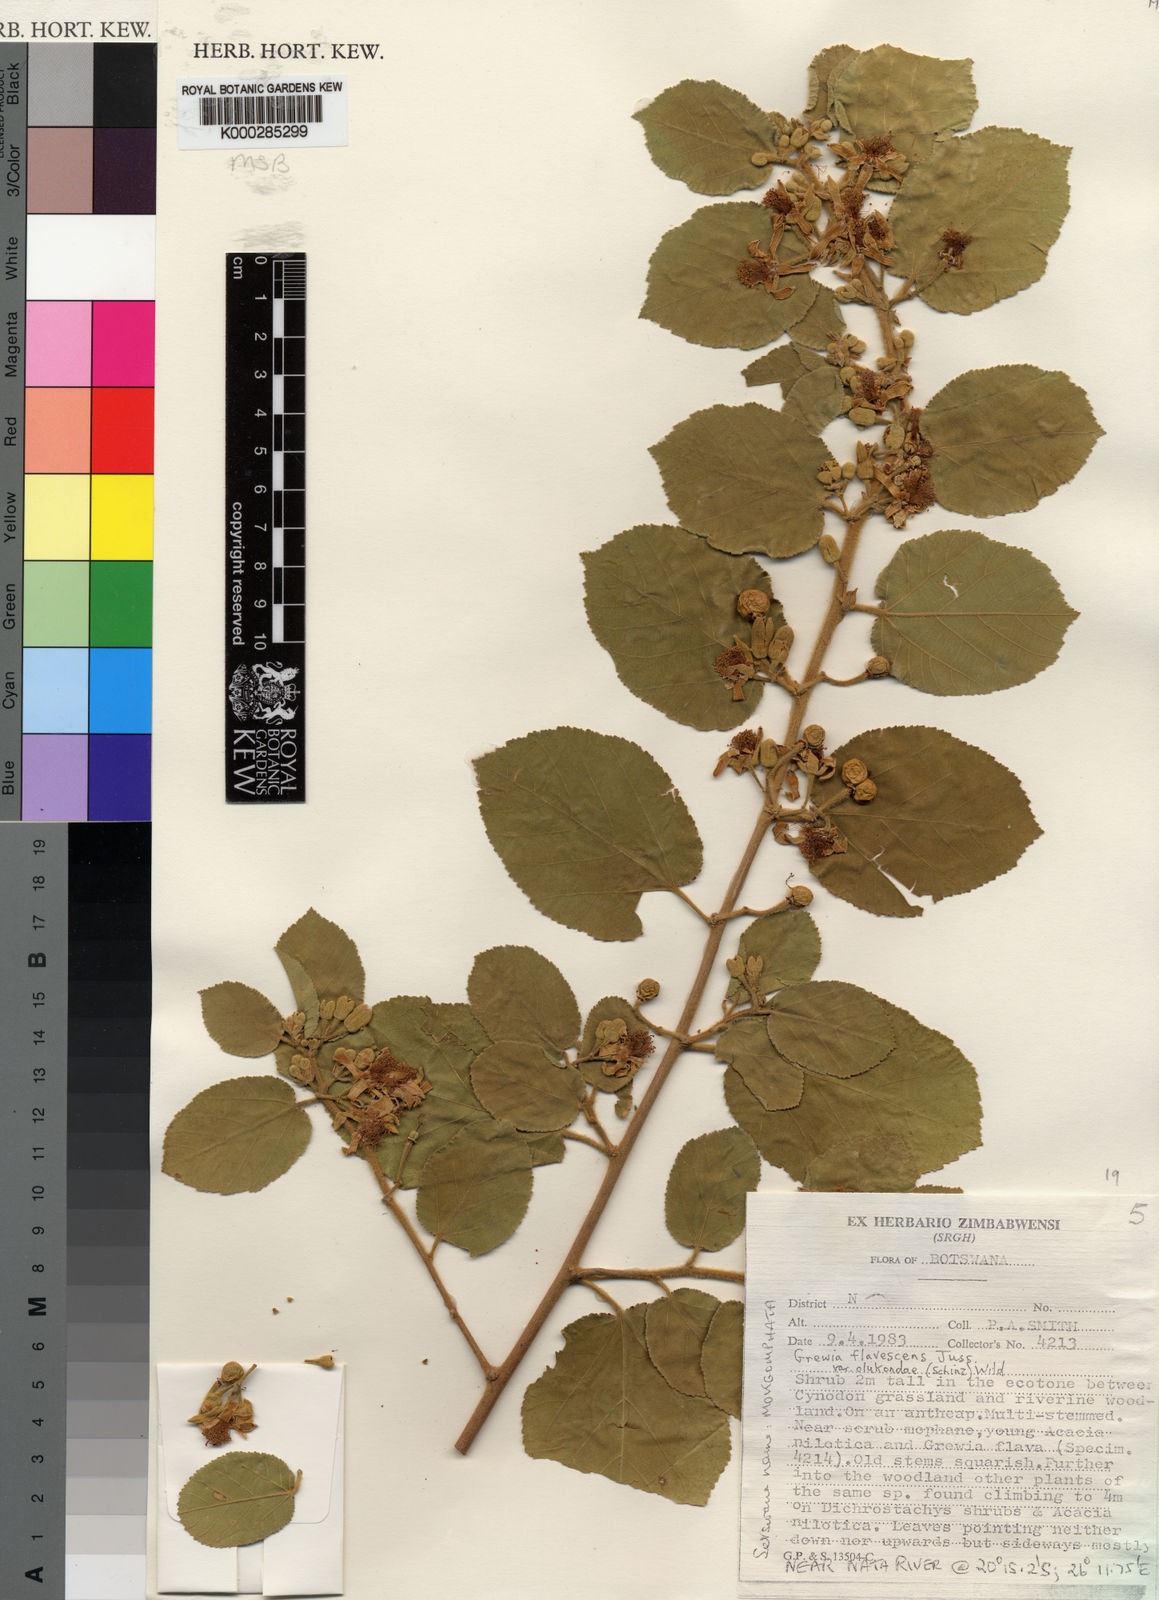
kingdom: Plantae
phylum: Tracheophyta
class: Magnoliopsida
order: Malvales
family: Malvaceae
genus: Grewia
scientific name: Grewia flavescens
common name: Sandpaper raisin
